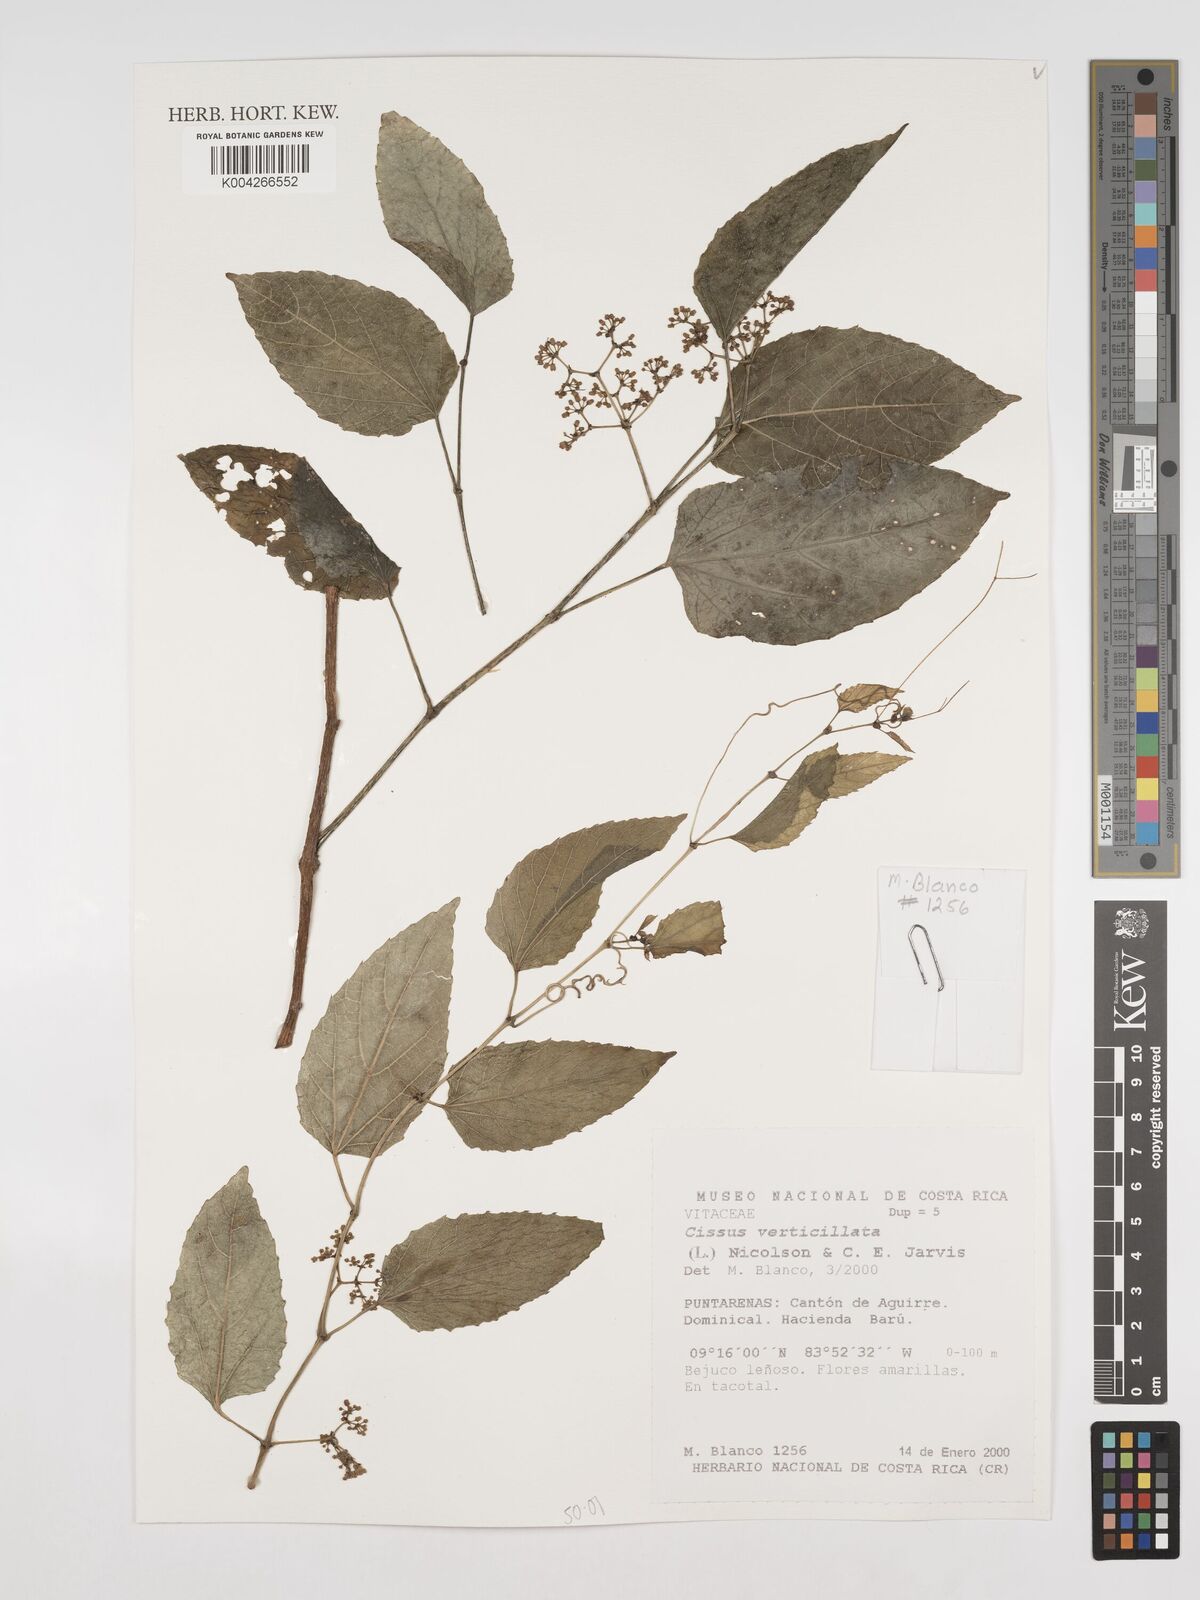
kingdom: Plantae
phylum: Tracheophyta
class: Magnoliopsida
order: Vitales
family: Vitaceae
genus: Cissus
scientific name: Cissus verticillata
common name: Princess vine
